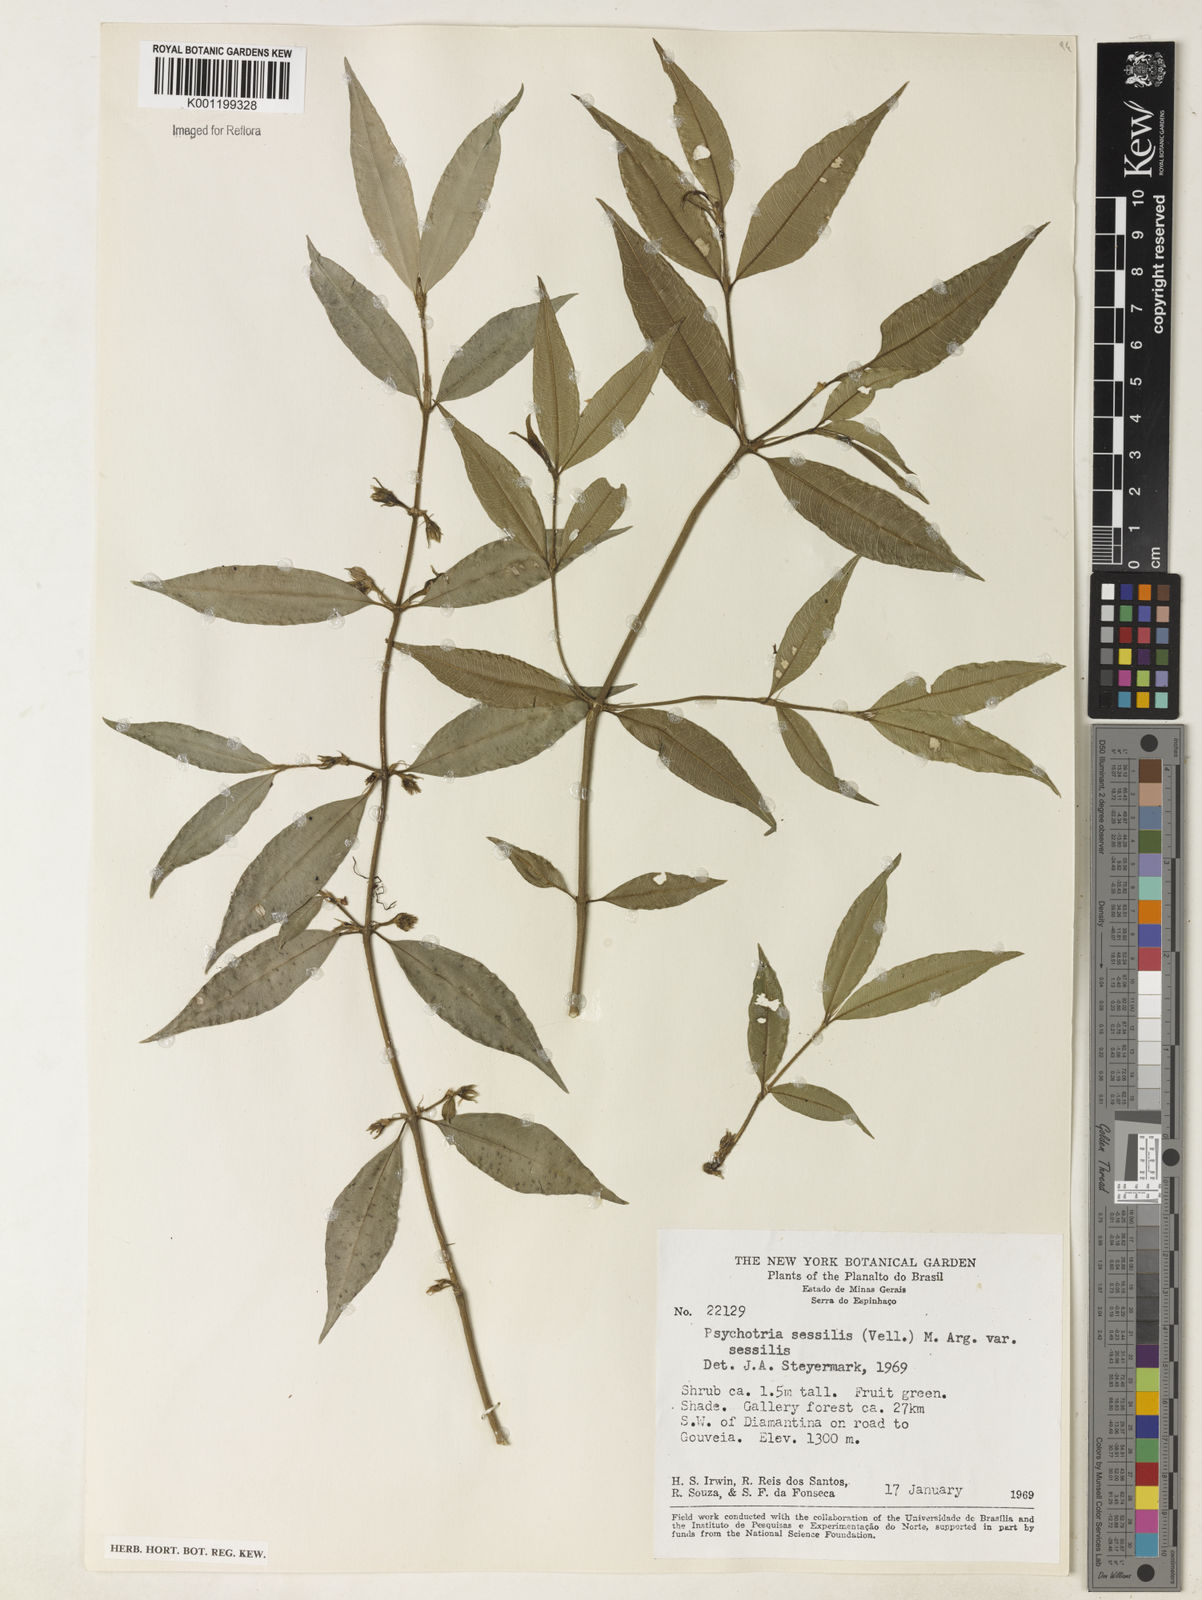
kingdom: Plantae
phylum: Tracheophyta
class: Magnoliopsida
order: Gentianales
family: Rubiaceae
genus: Rudgea
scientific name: Rudgea sessilis
